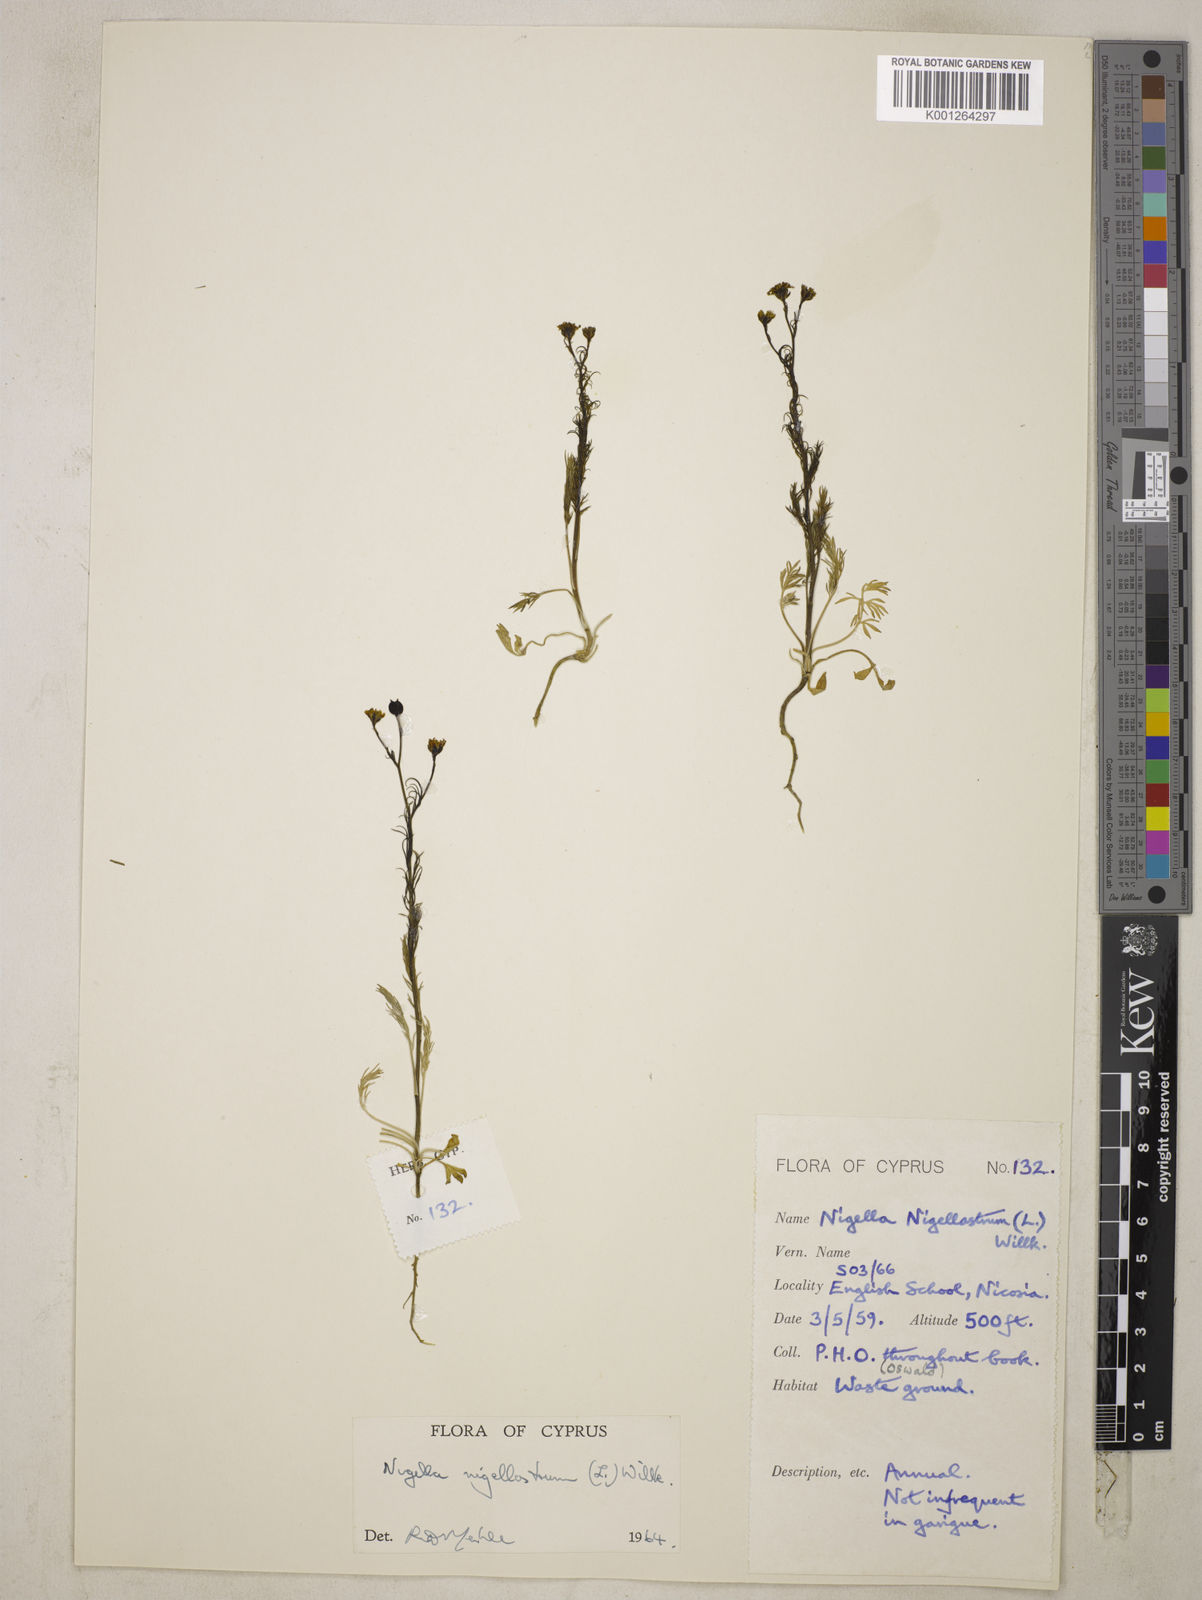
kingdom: Plantae
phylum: Tracheophyta
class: Magnoliopsida
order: Ranunculales
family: Ranunculaceae
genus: Garidella
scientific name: Garidella nigellastrum
